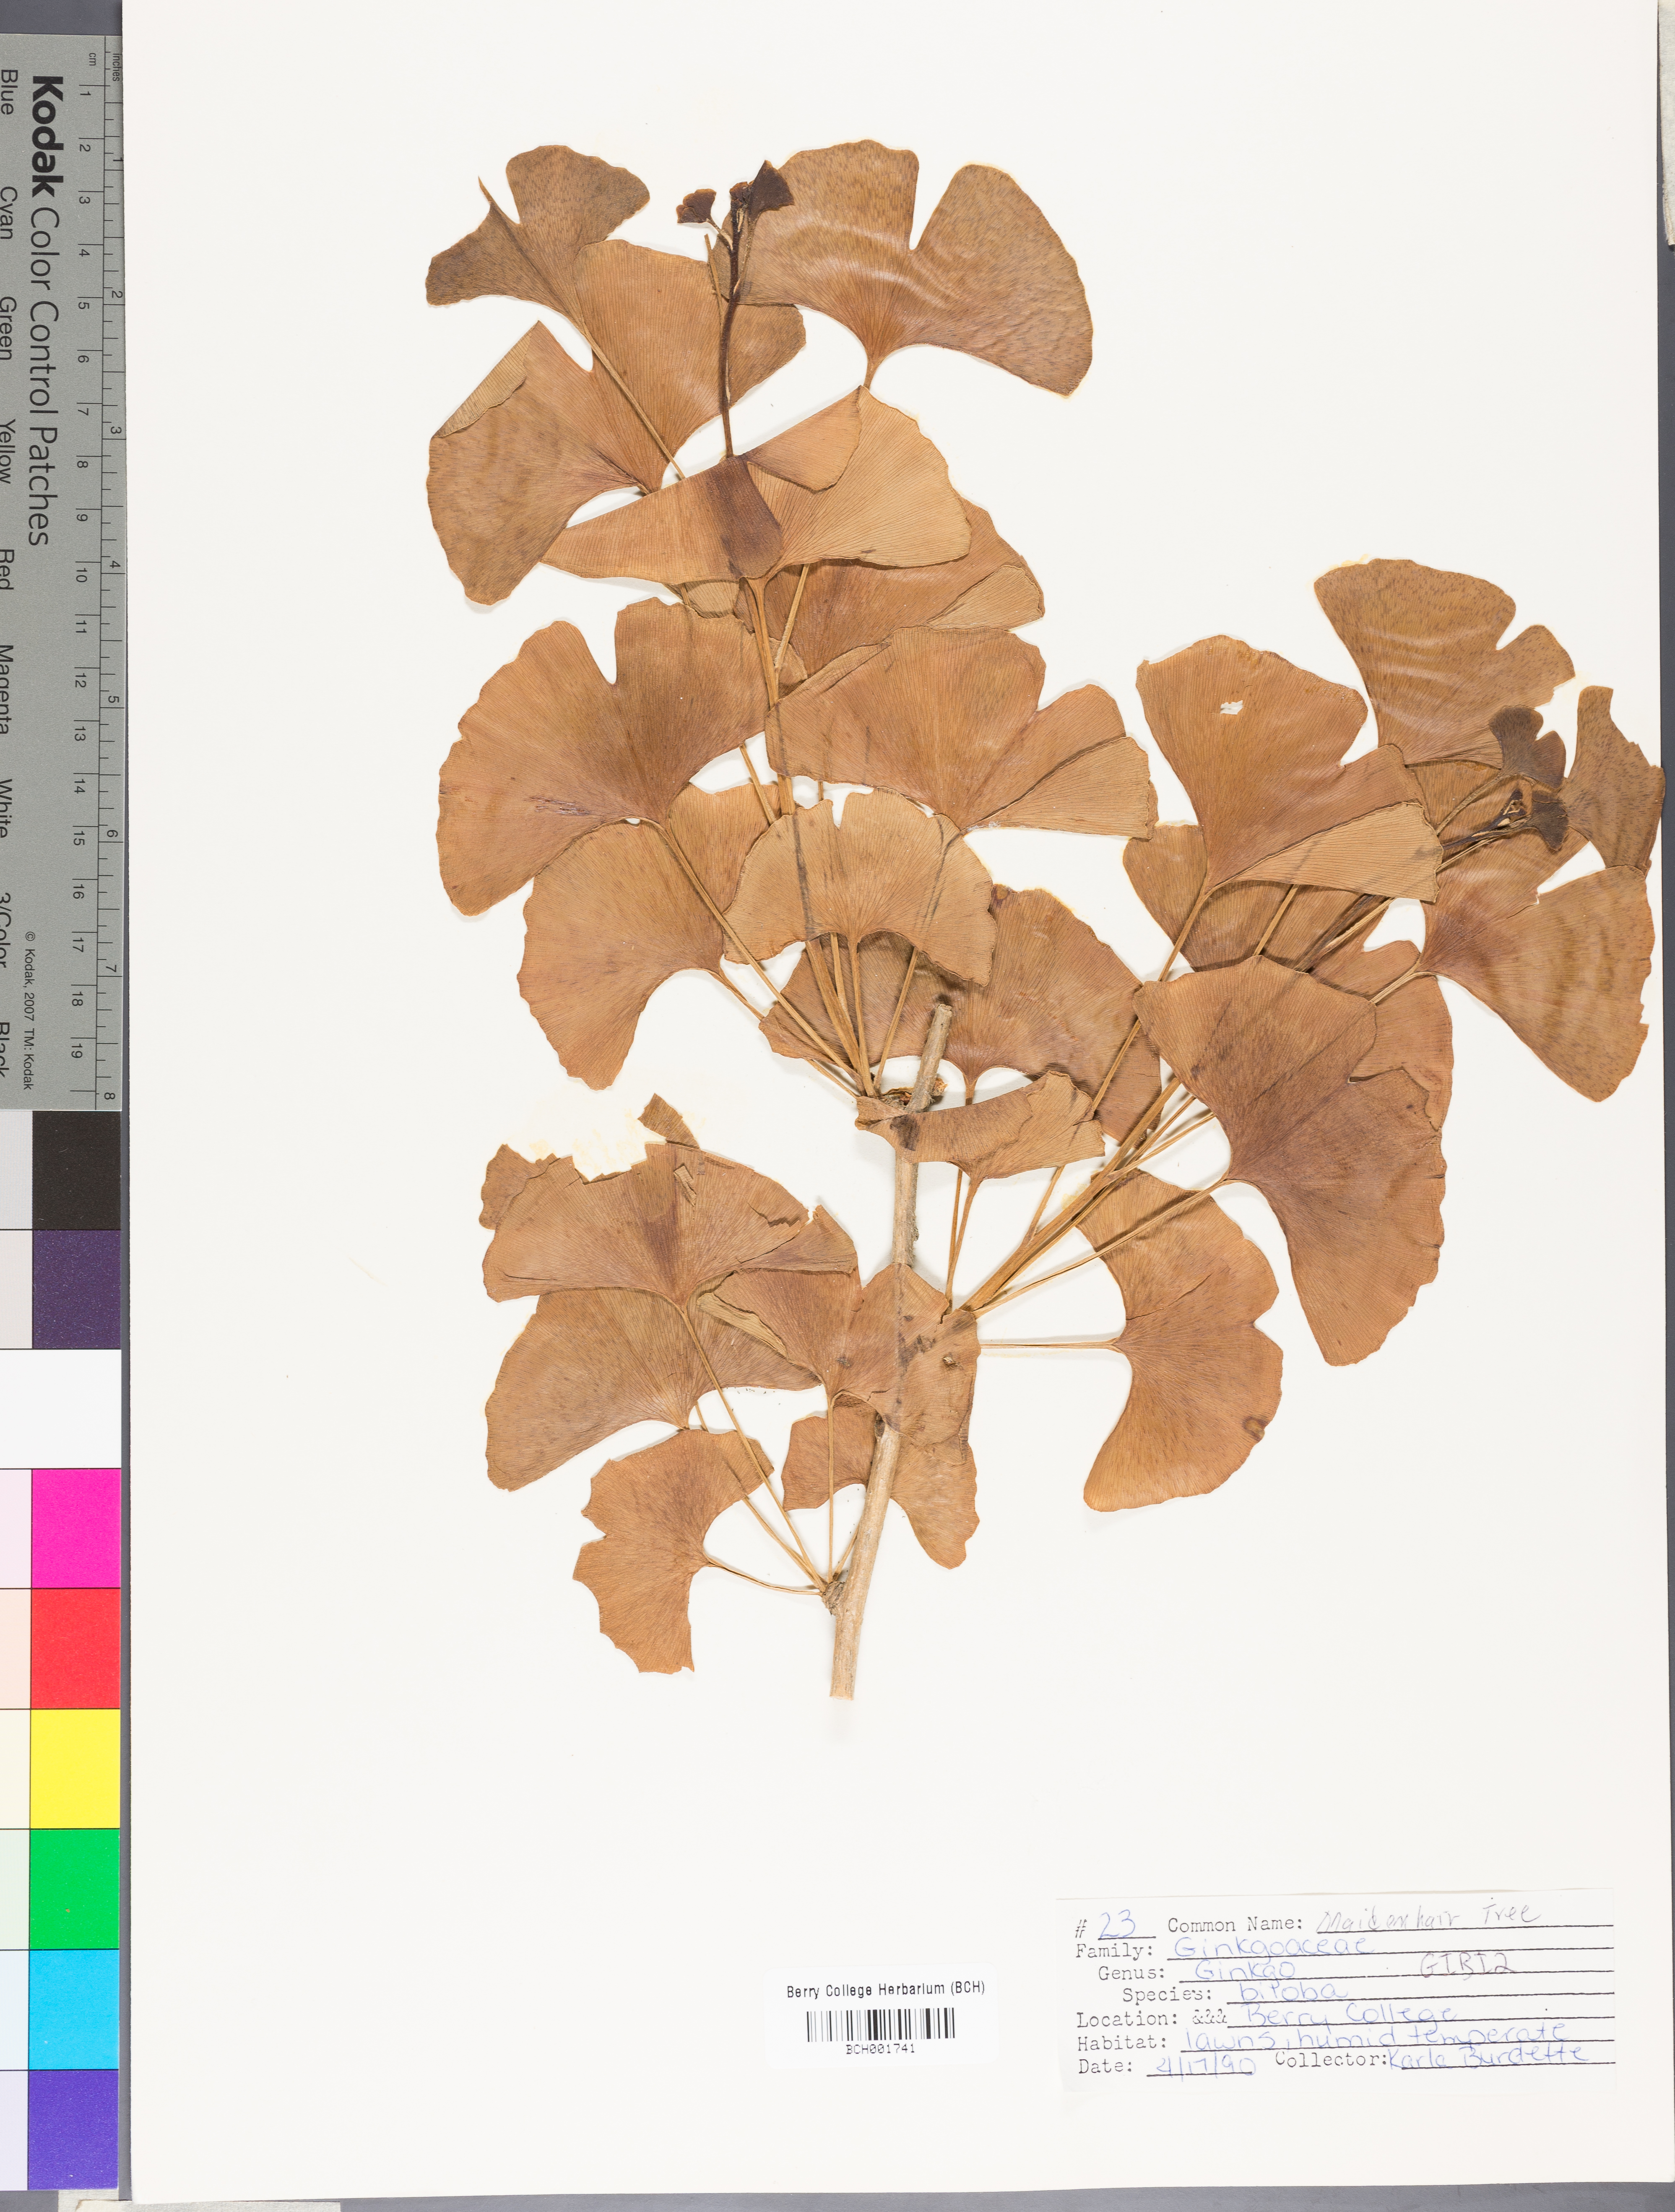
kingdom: Plantae
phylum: Tracheophyta
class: Ginkgoopsida
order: Ginkgoales
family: Ginkgoaceae
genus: Ginkgo
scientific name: Ginkgo biloba
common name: Ginkgo
